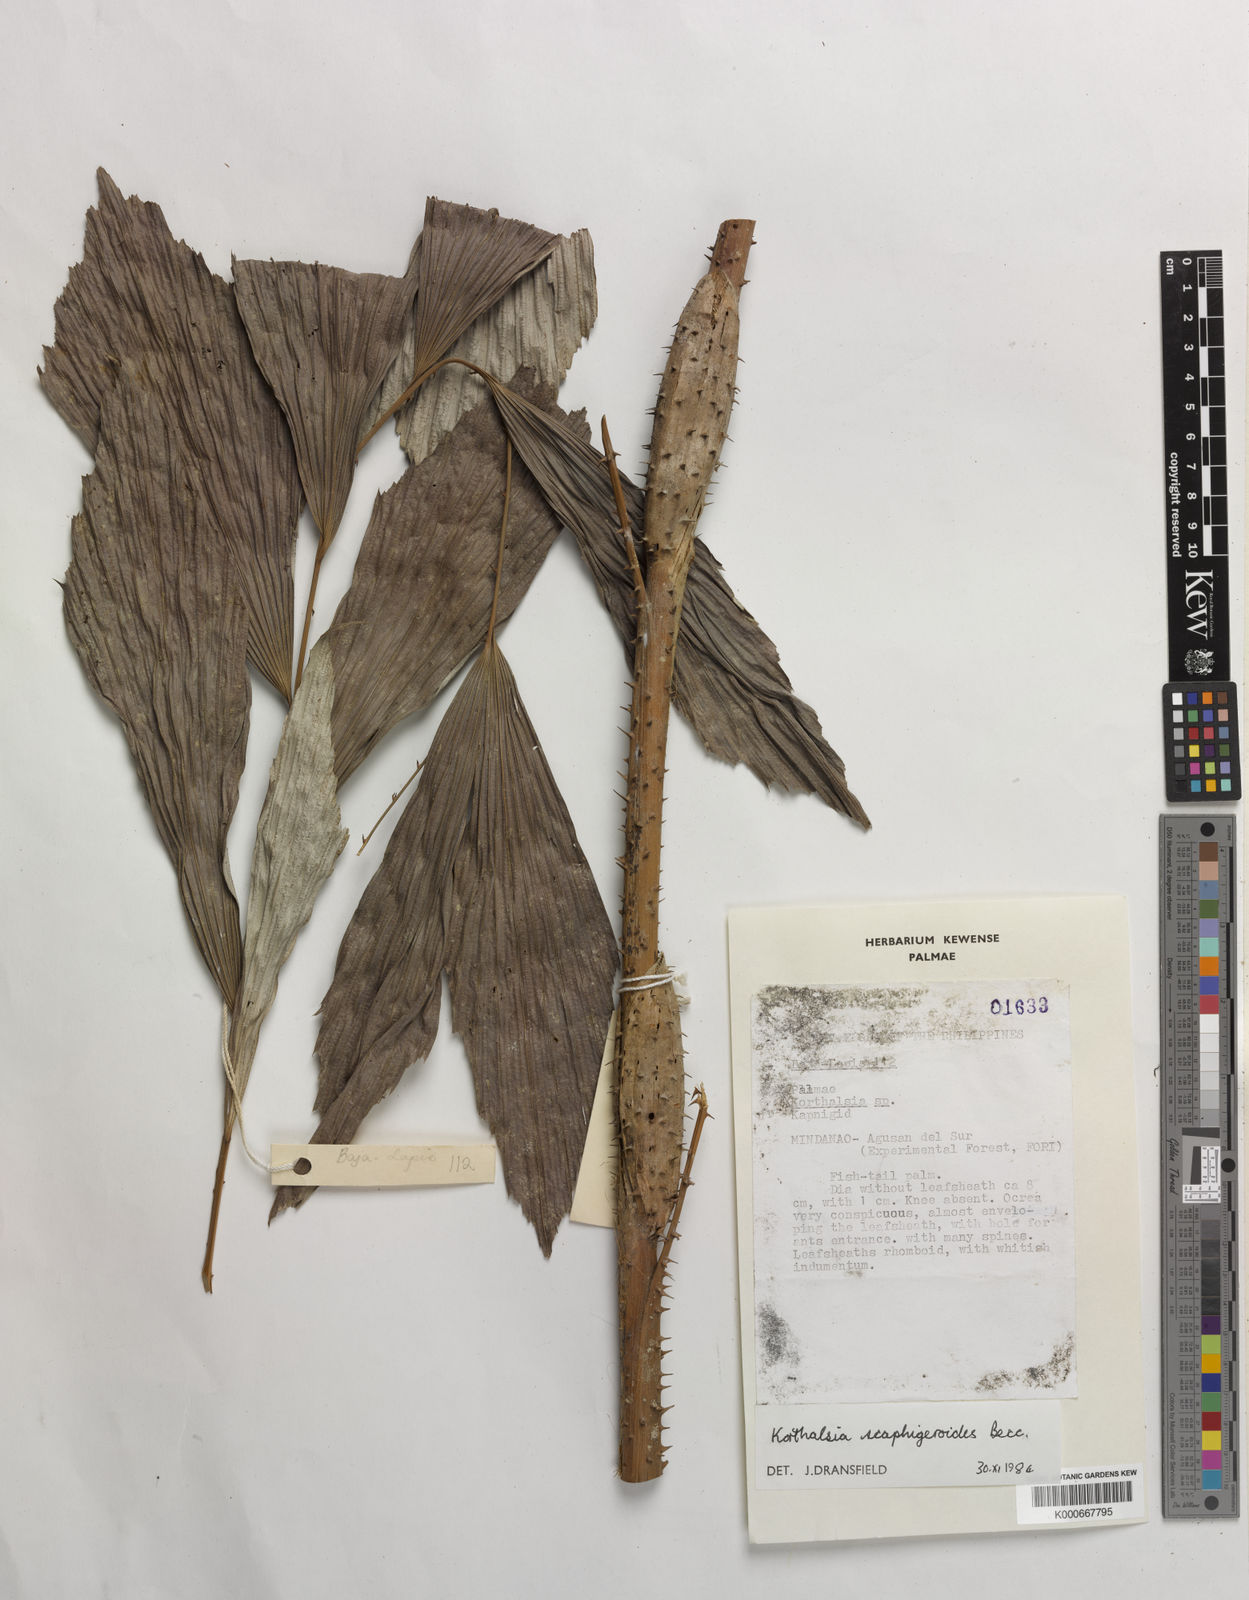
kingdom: Plantae
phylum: Tracheophyta
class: Liliopsida
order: Arecales
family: Arecaceae
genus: Korthalsia
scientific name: Korthalsia scaphigeroides
